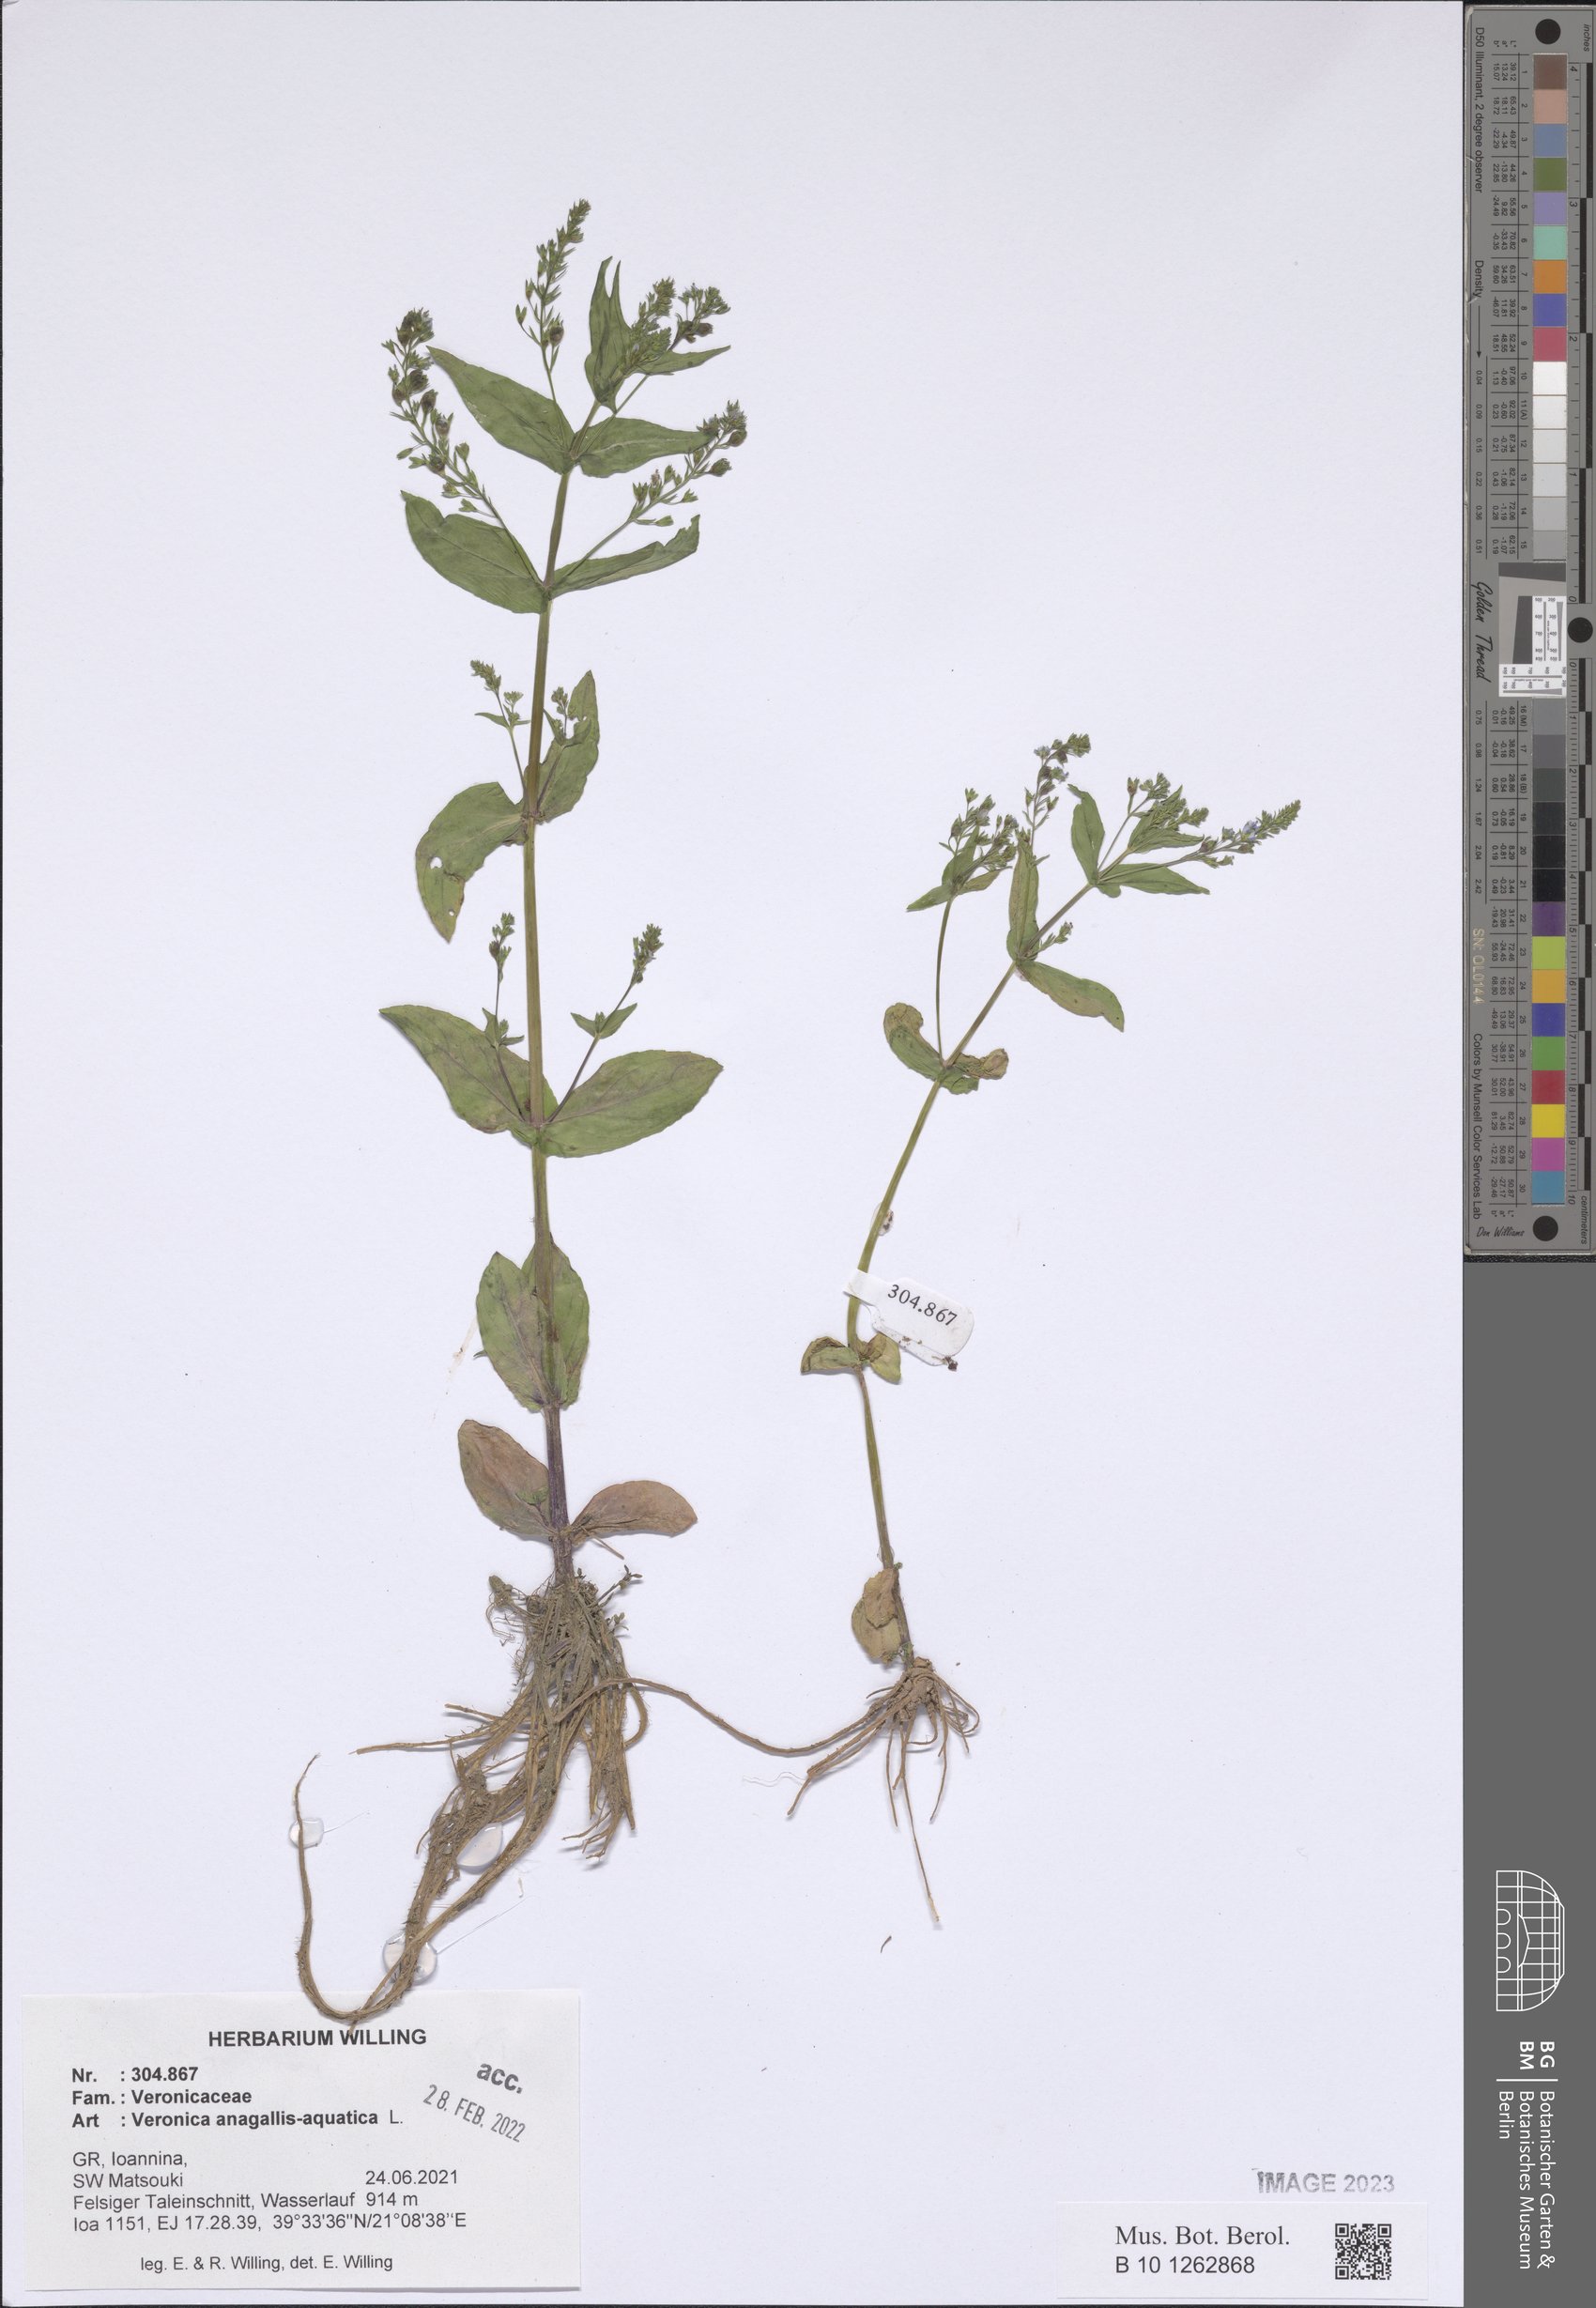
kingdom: Plantae
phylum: Tracheophyta
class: Magnoliopsida
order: Lamiales
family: Plantaginaceae
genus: Veronica
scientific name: Veronica anagallis-aquatica
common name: Water speedwell
